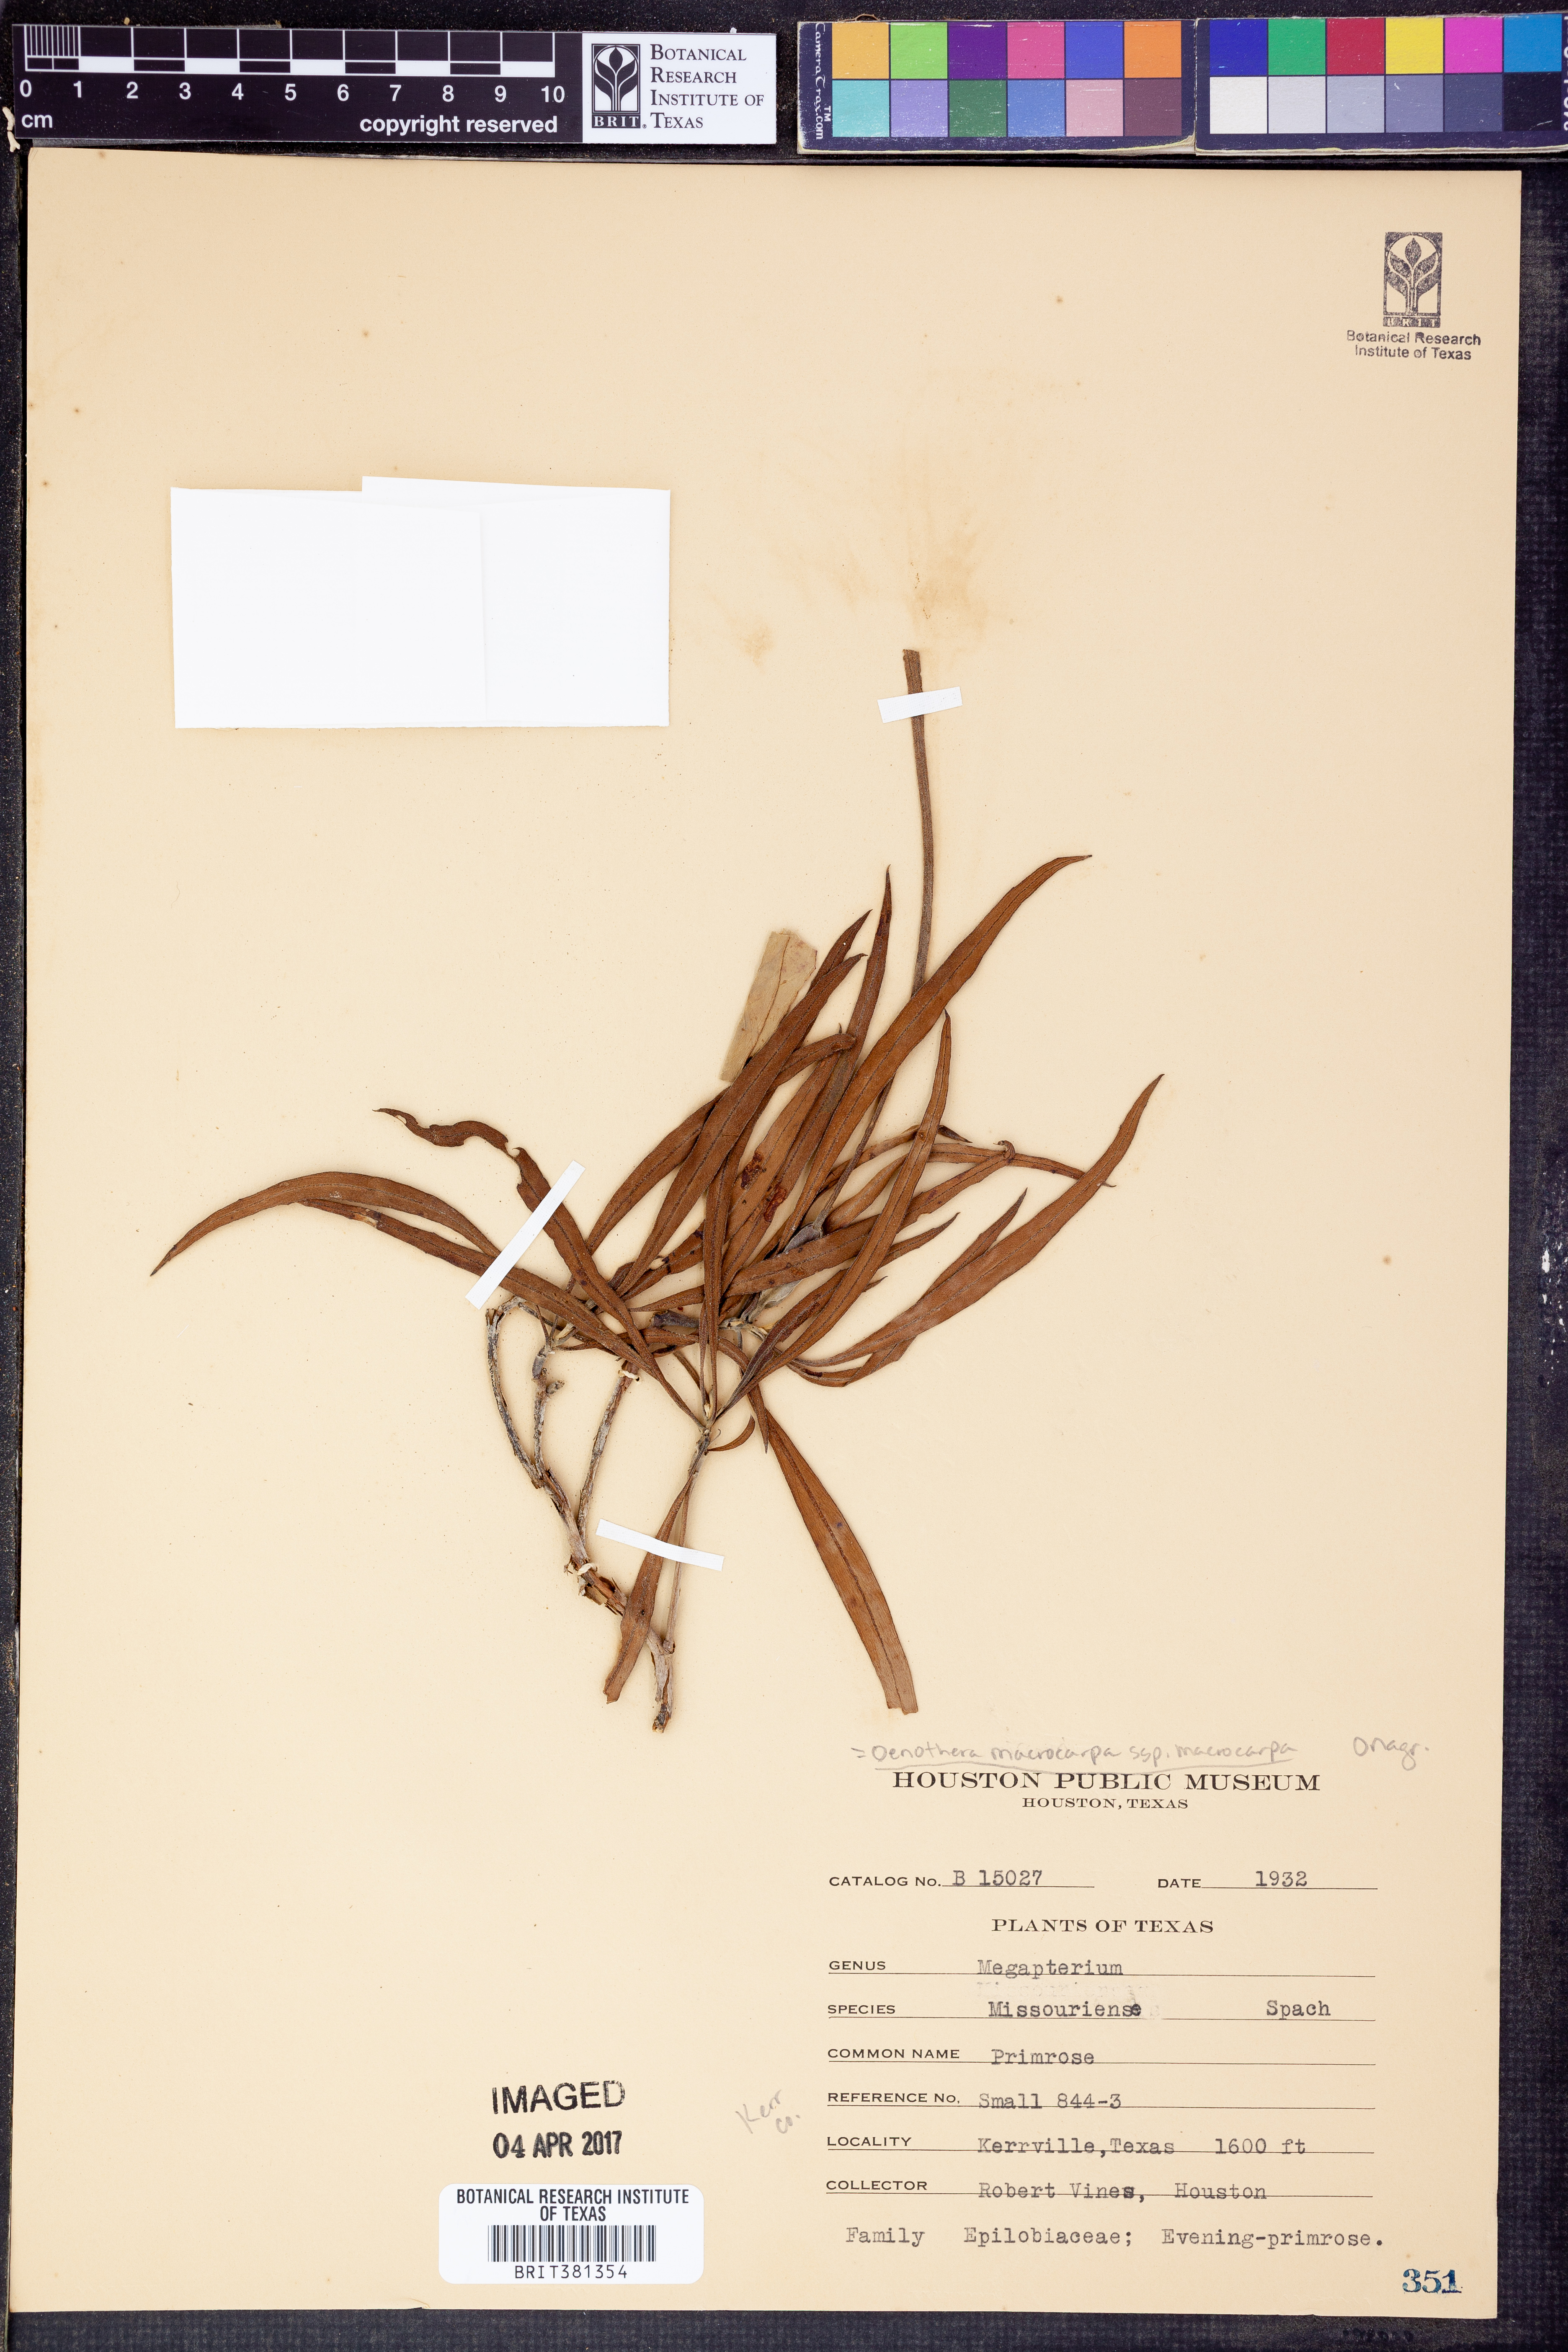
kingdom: Plantae
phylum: Tracheophyta
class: Magnoliopsida
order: Myrtales
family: Onagraceae
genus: Oenothera
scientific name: Oenothera macrocarpa
